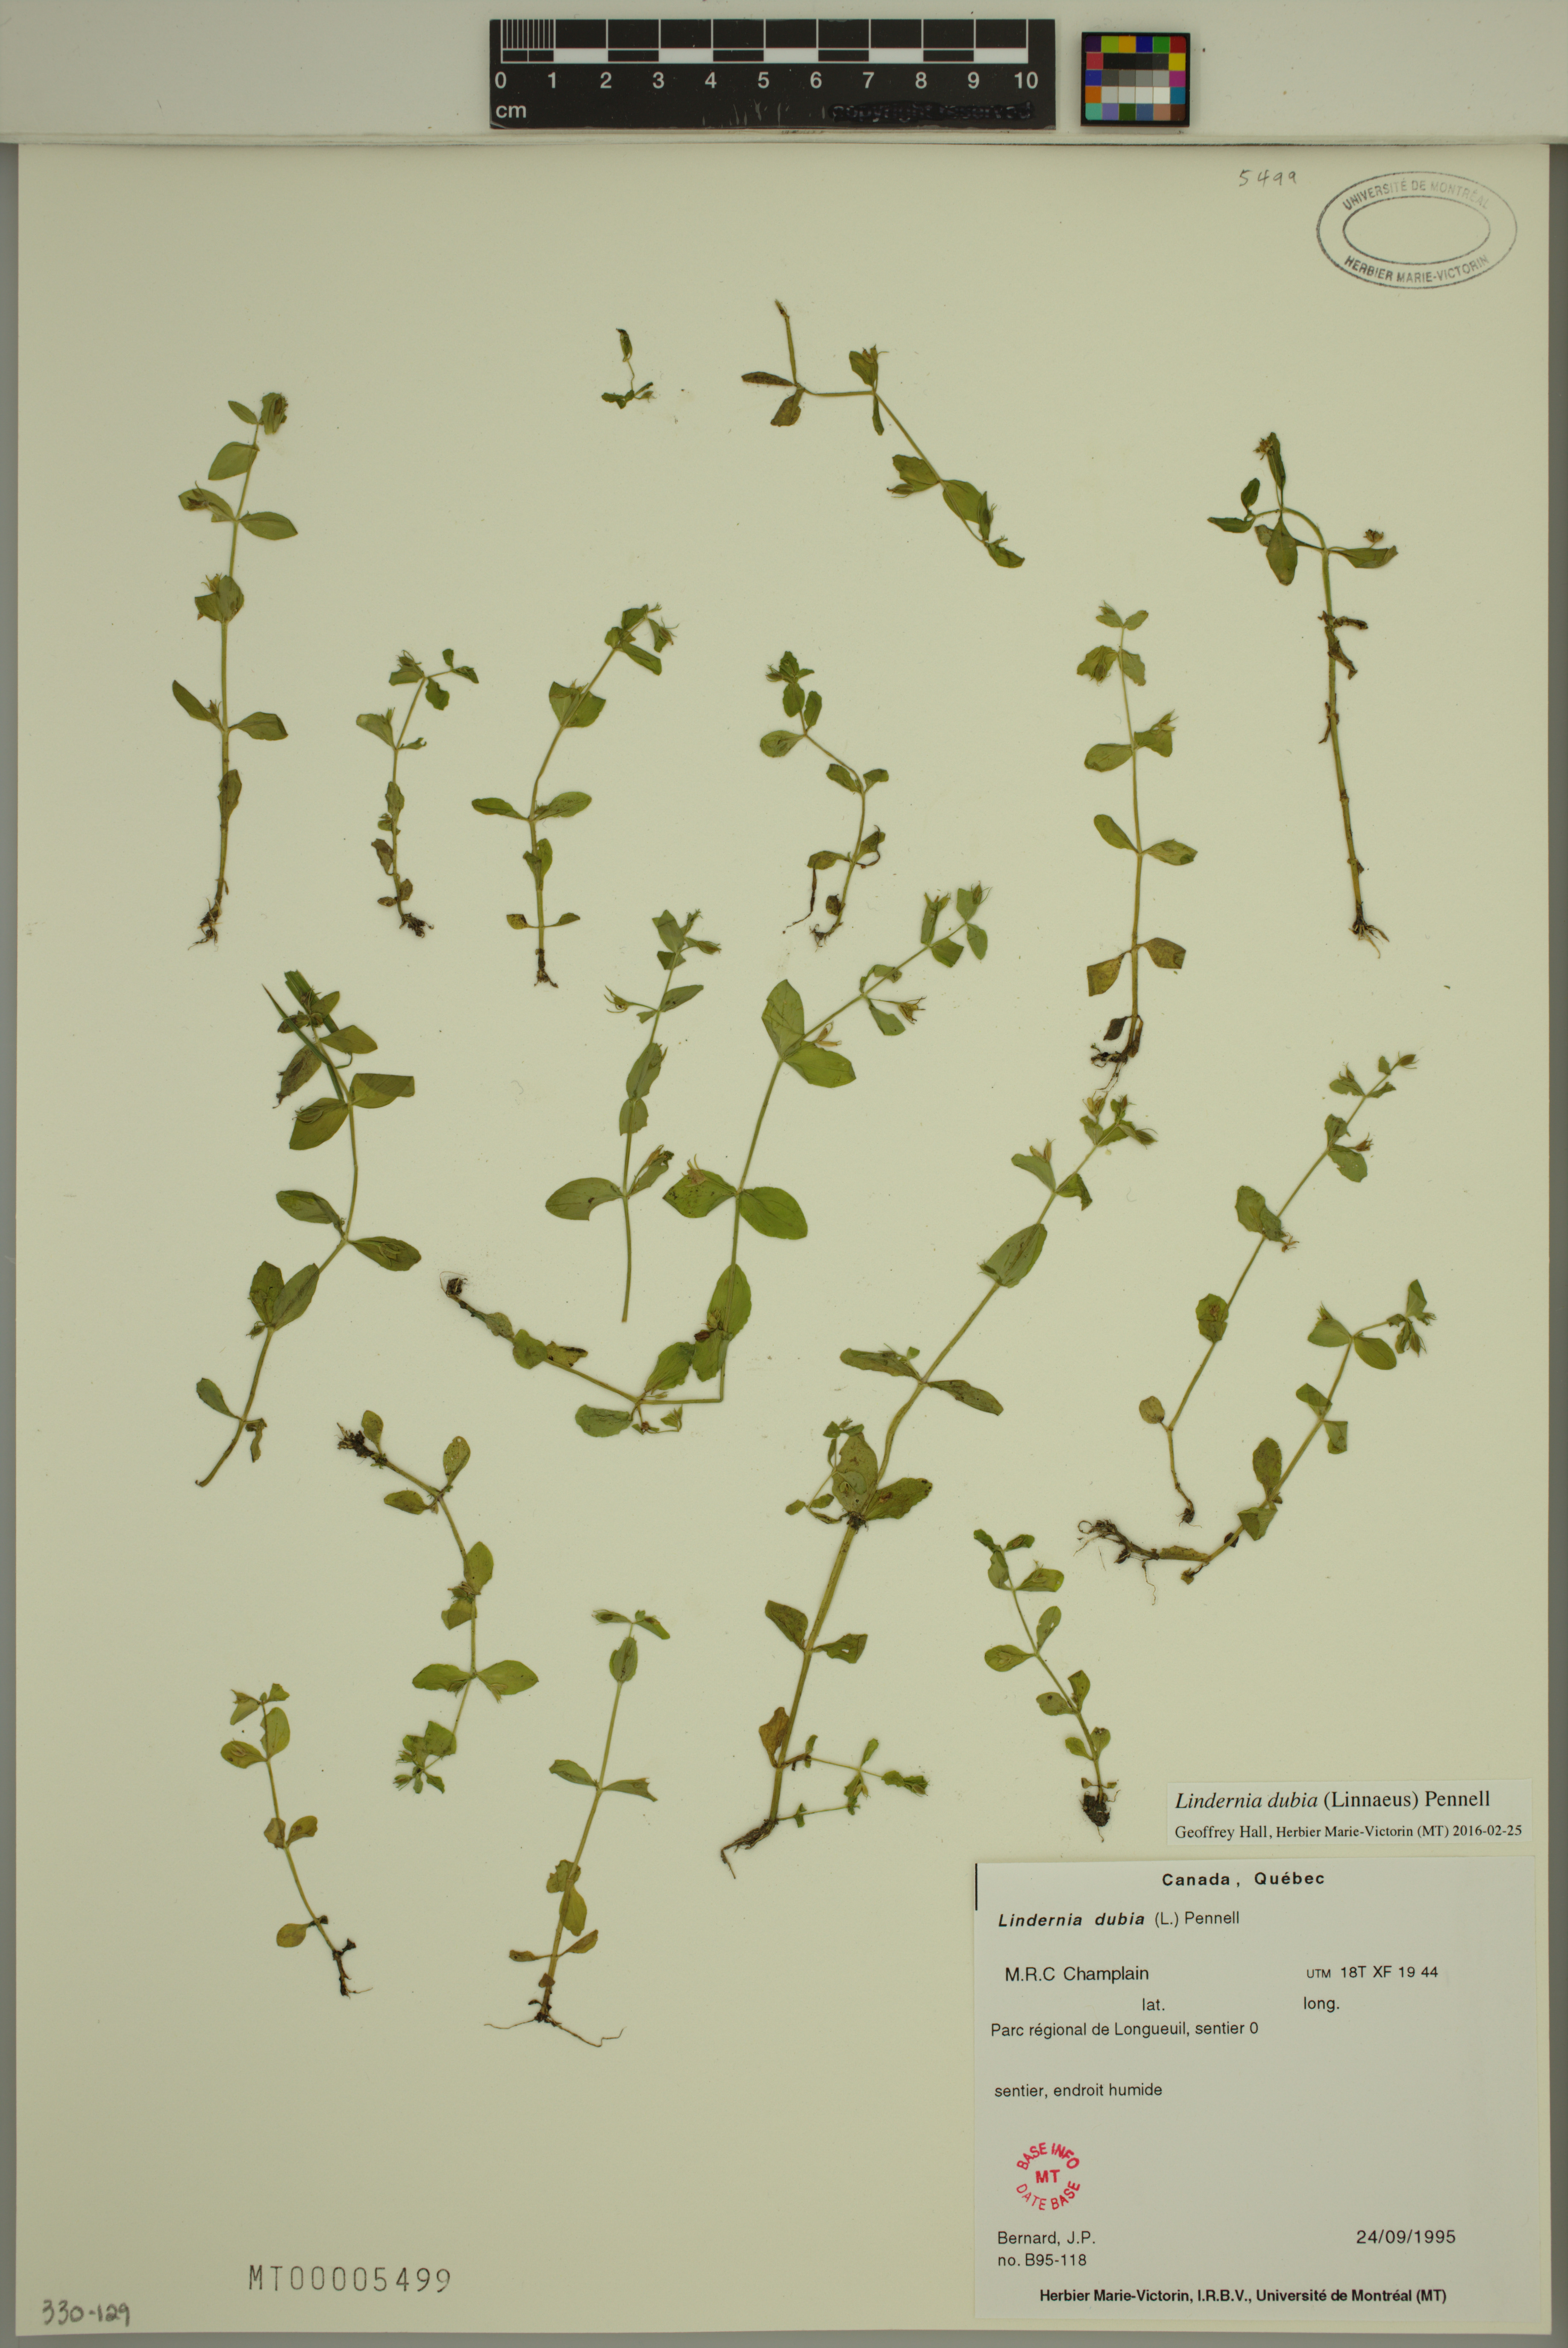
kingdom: Plantae
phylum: Tracheophyta
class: Magnoliopsida
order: Lamiales
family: Linderniaceae
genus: Lindernia
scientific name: Lindernia dubia
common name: Annual false pimpernel
